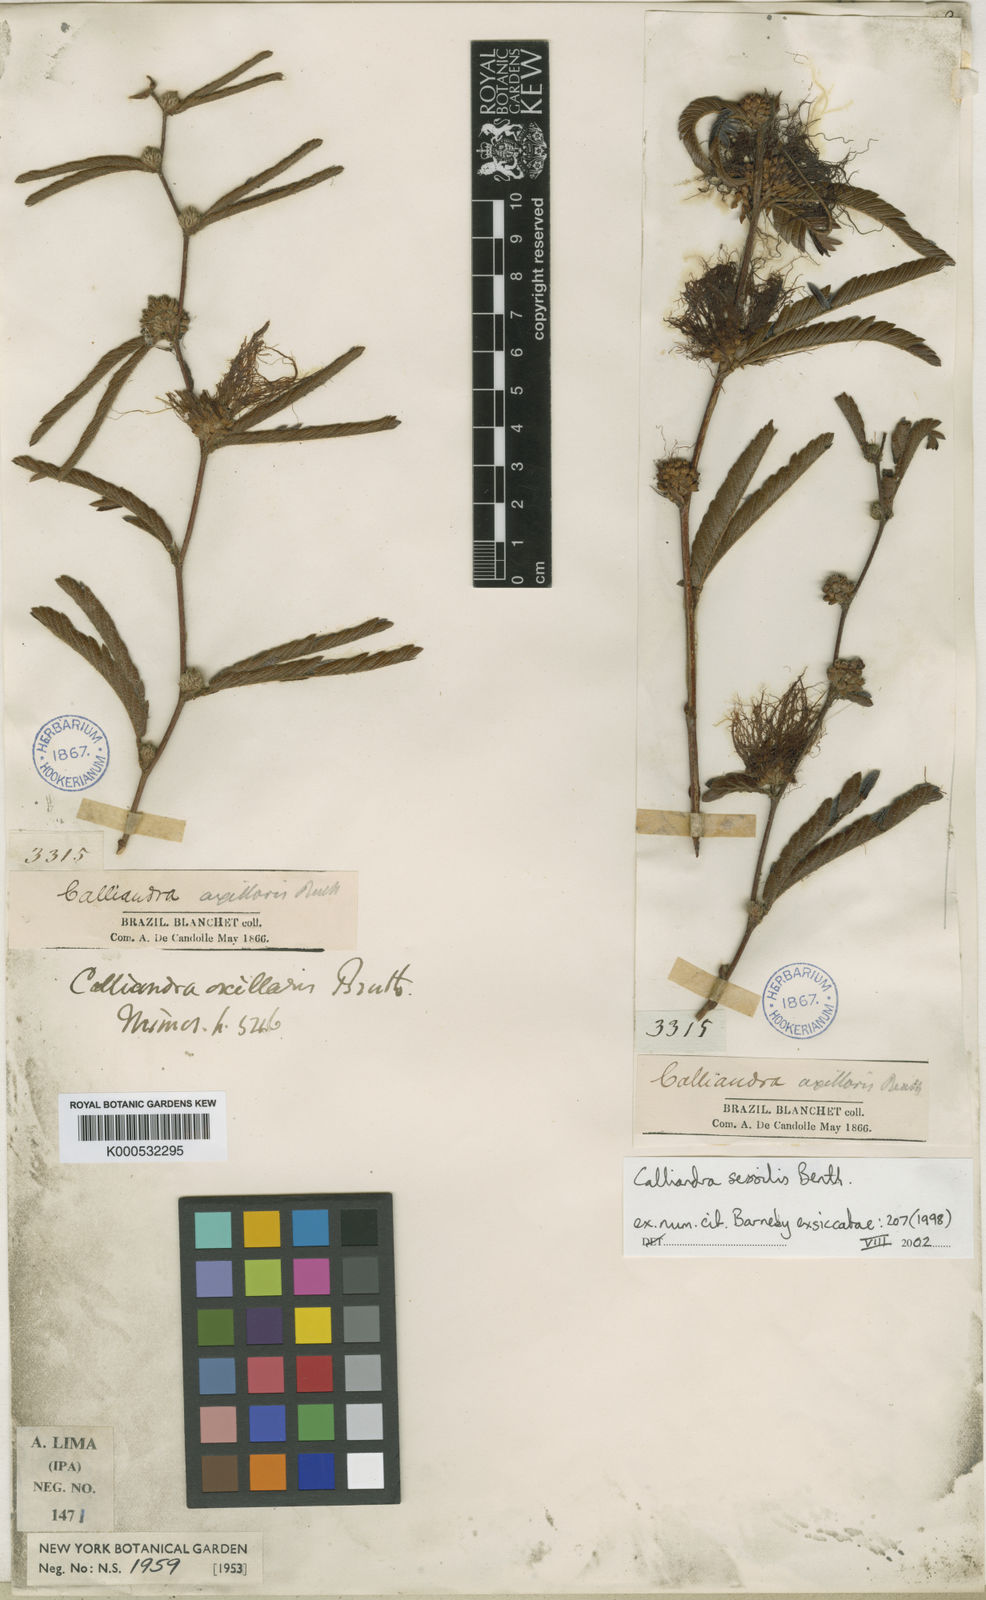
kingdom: Plantae
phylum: Tracheophyta
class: Magnoliopsida
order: Fabales
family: Fabaceae
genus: Calliandra
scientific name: Calliandra sessilis
